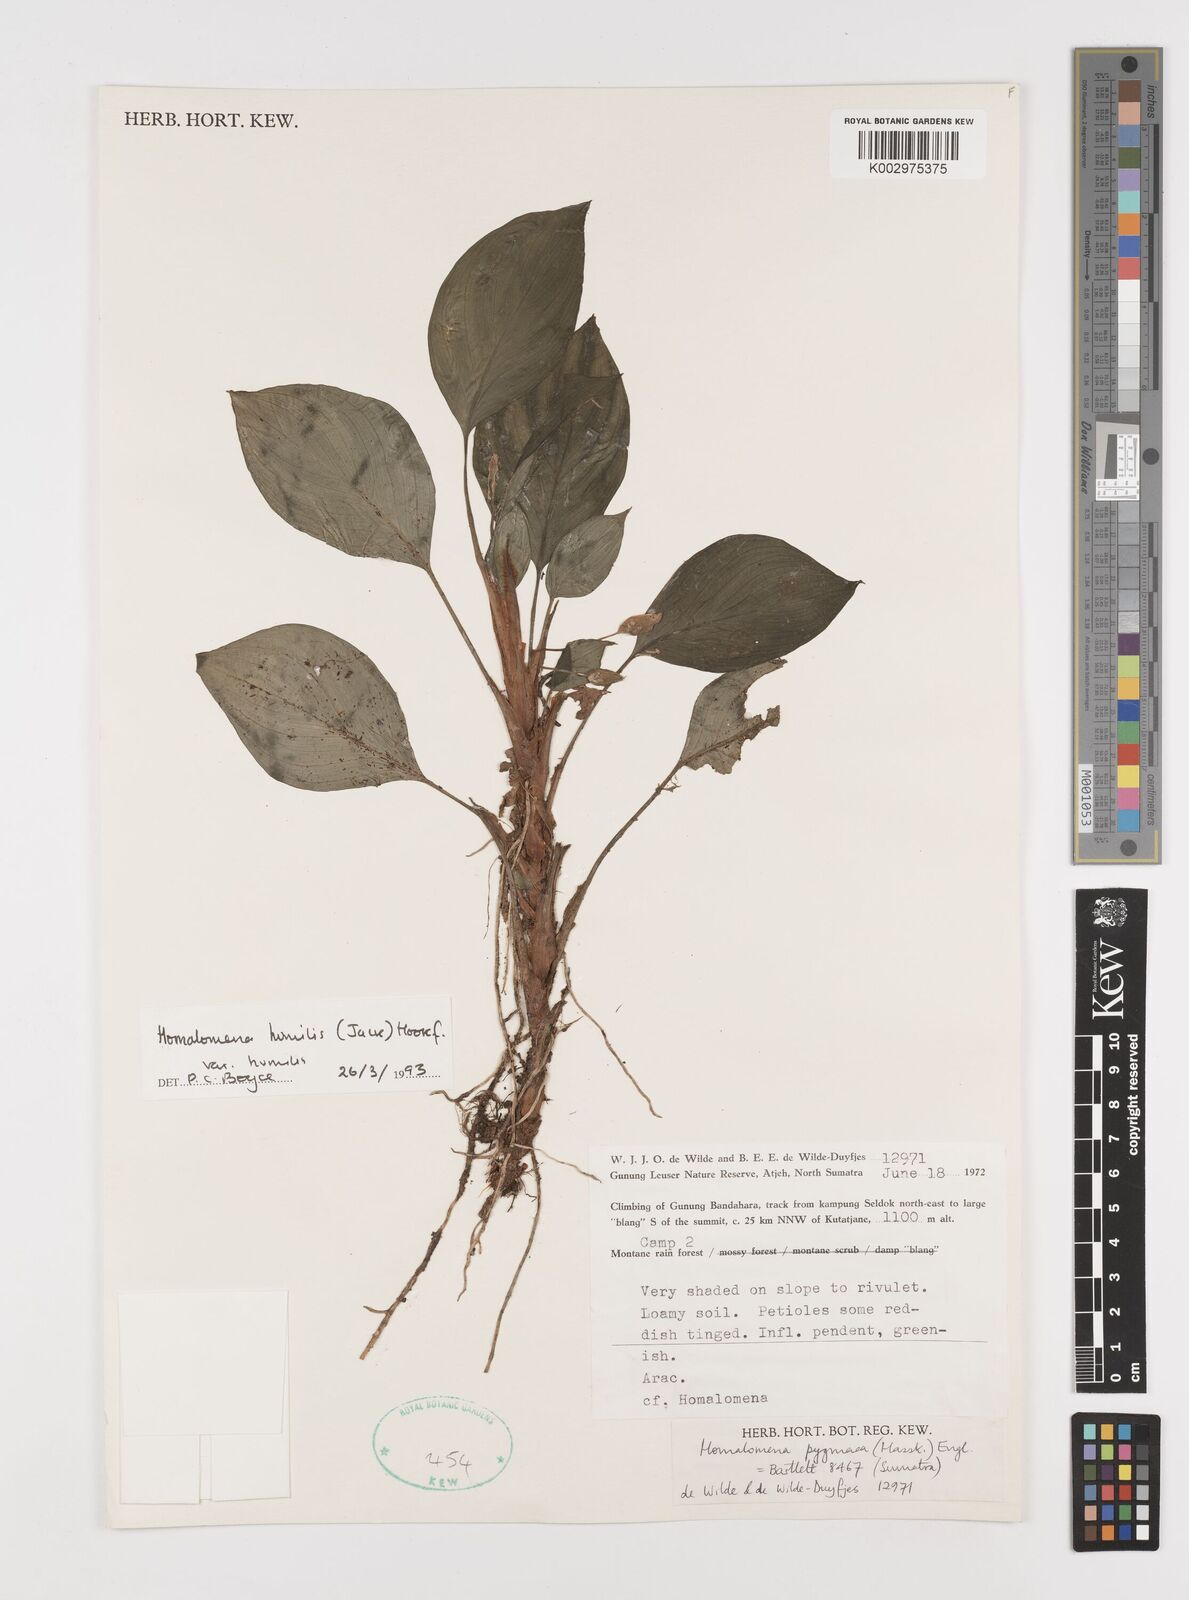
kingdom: Plantae
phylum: Tracheophyta
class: Liliopsida
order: Alismatales
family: Araceae
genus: Homalomena
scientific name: Homalomena humilis
